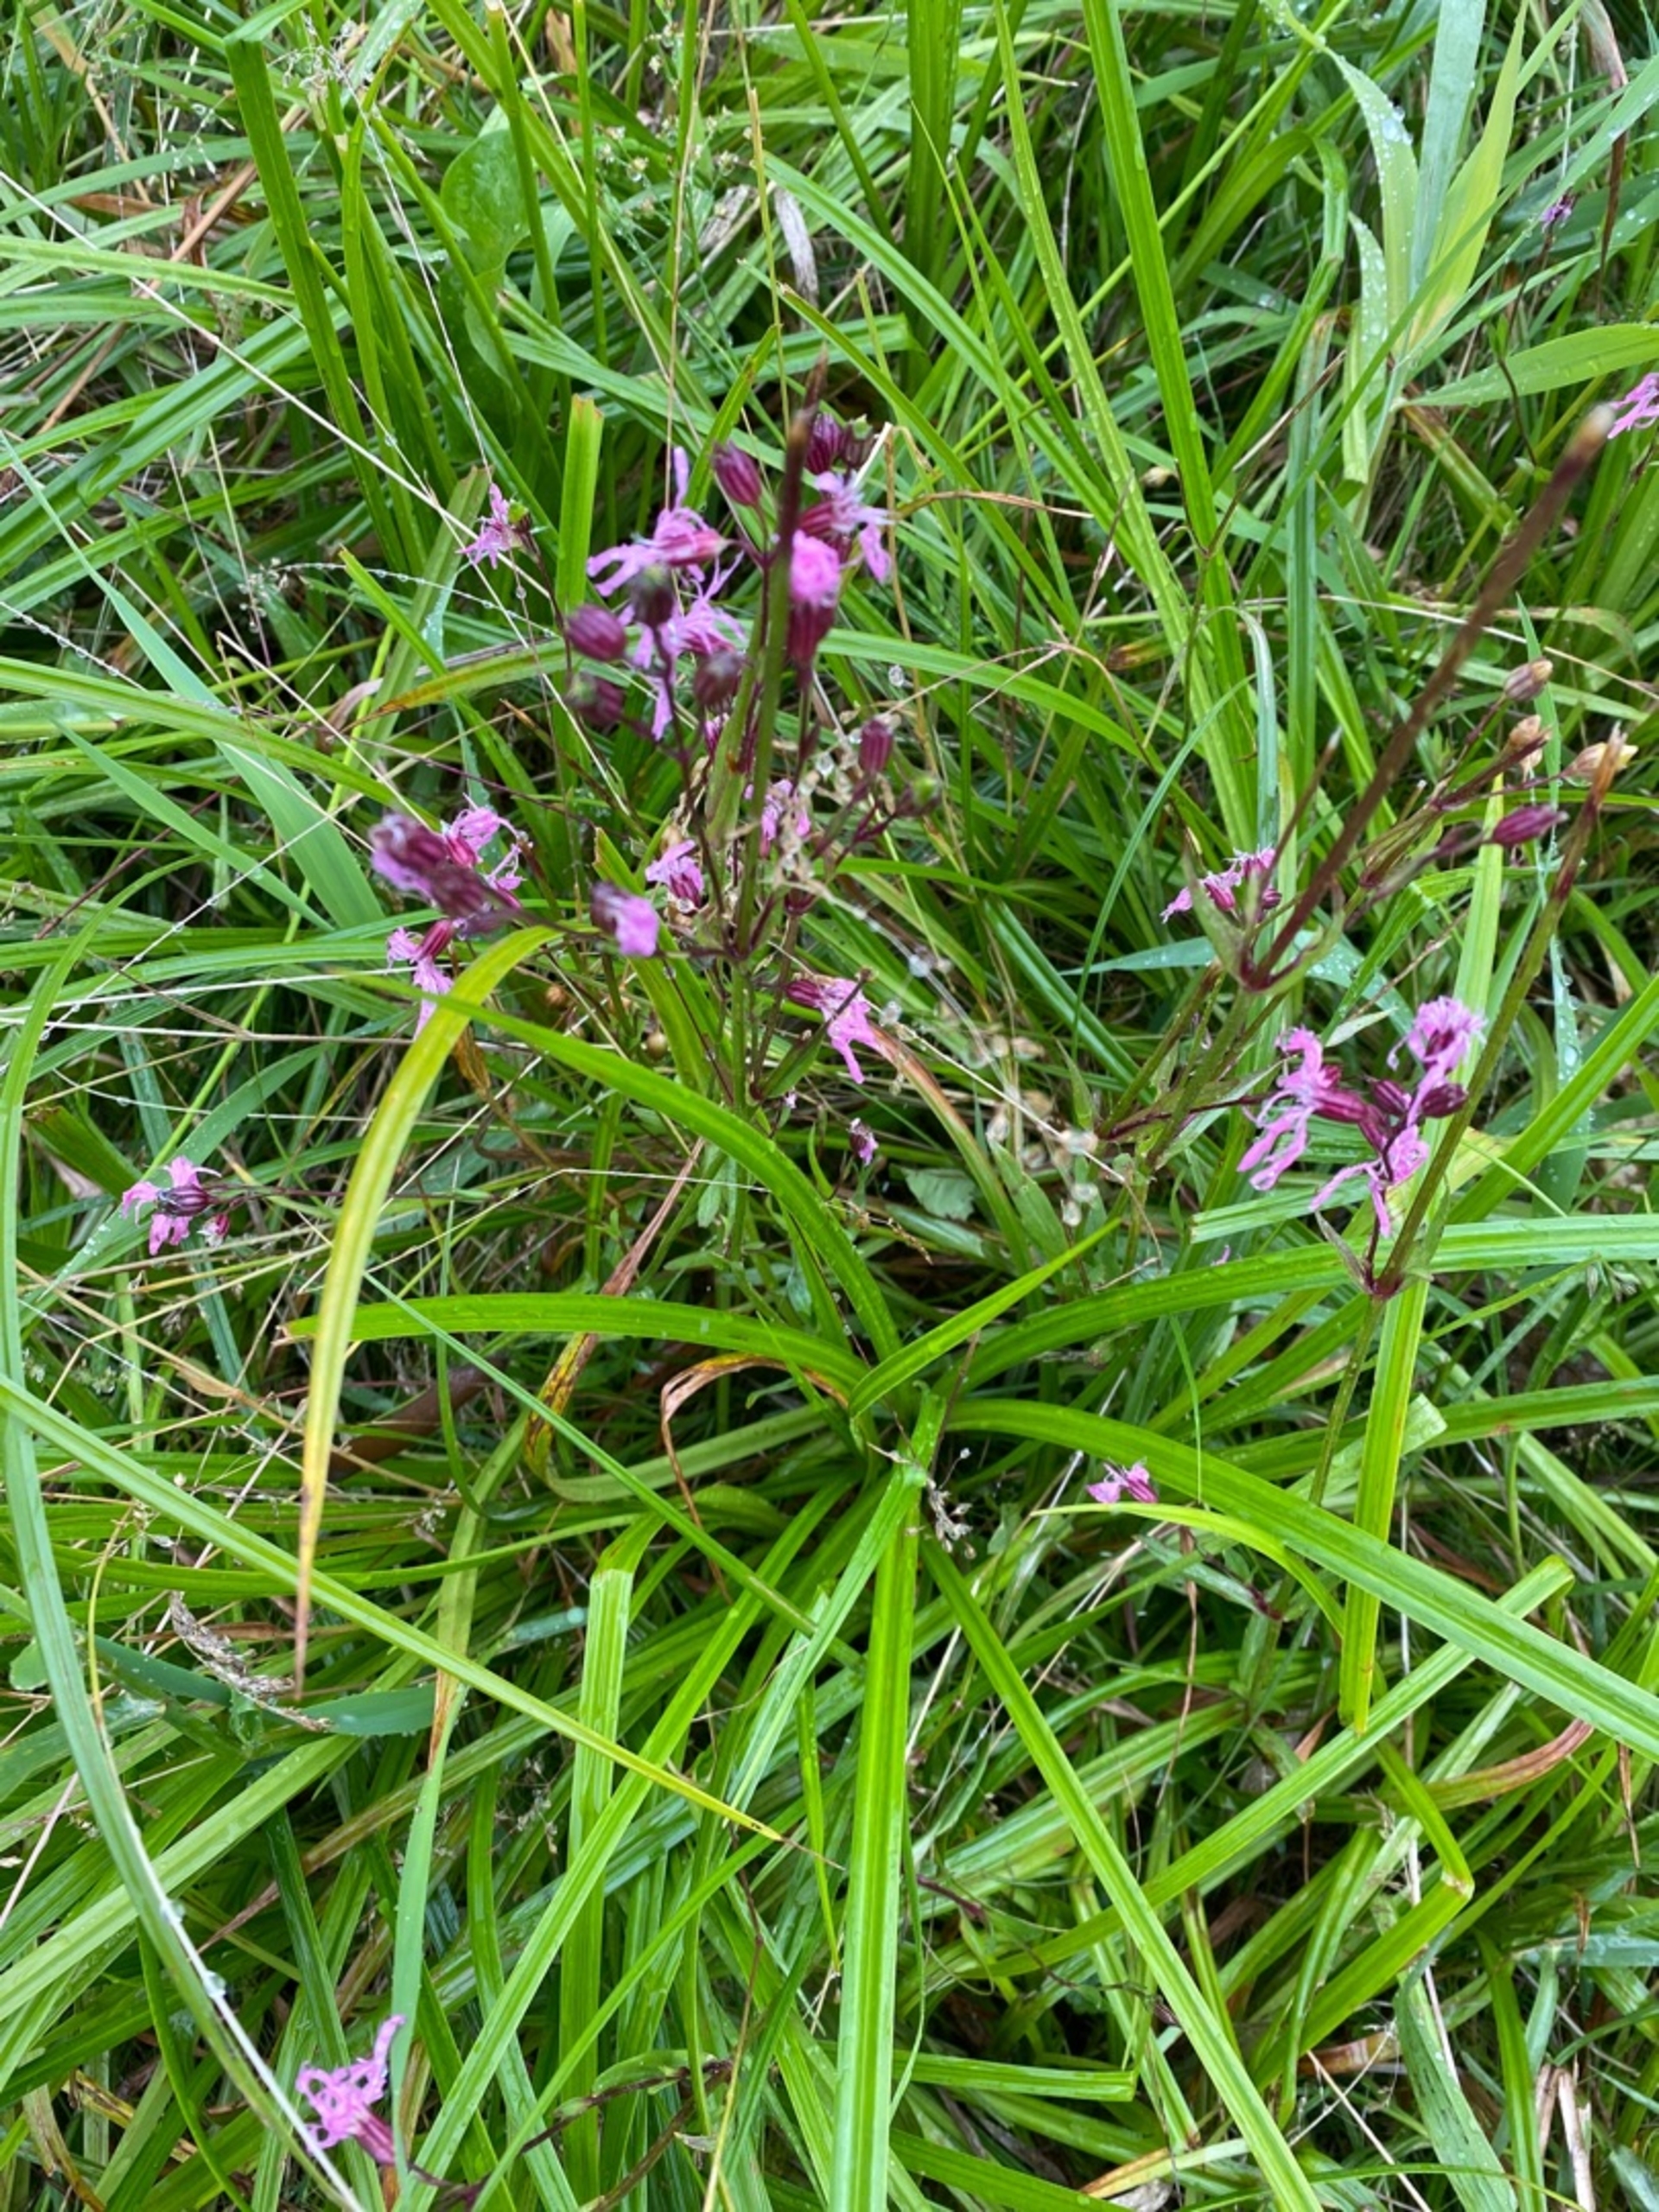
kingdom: Plantae
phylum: Tracheophyta
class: Magnoliopsida
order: Caryophyllales
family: Caryophyllaceae
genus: Silene
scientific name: Silene flos-cuculi
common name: Trævlekrone
